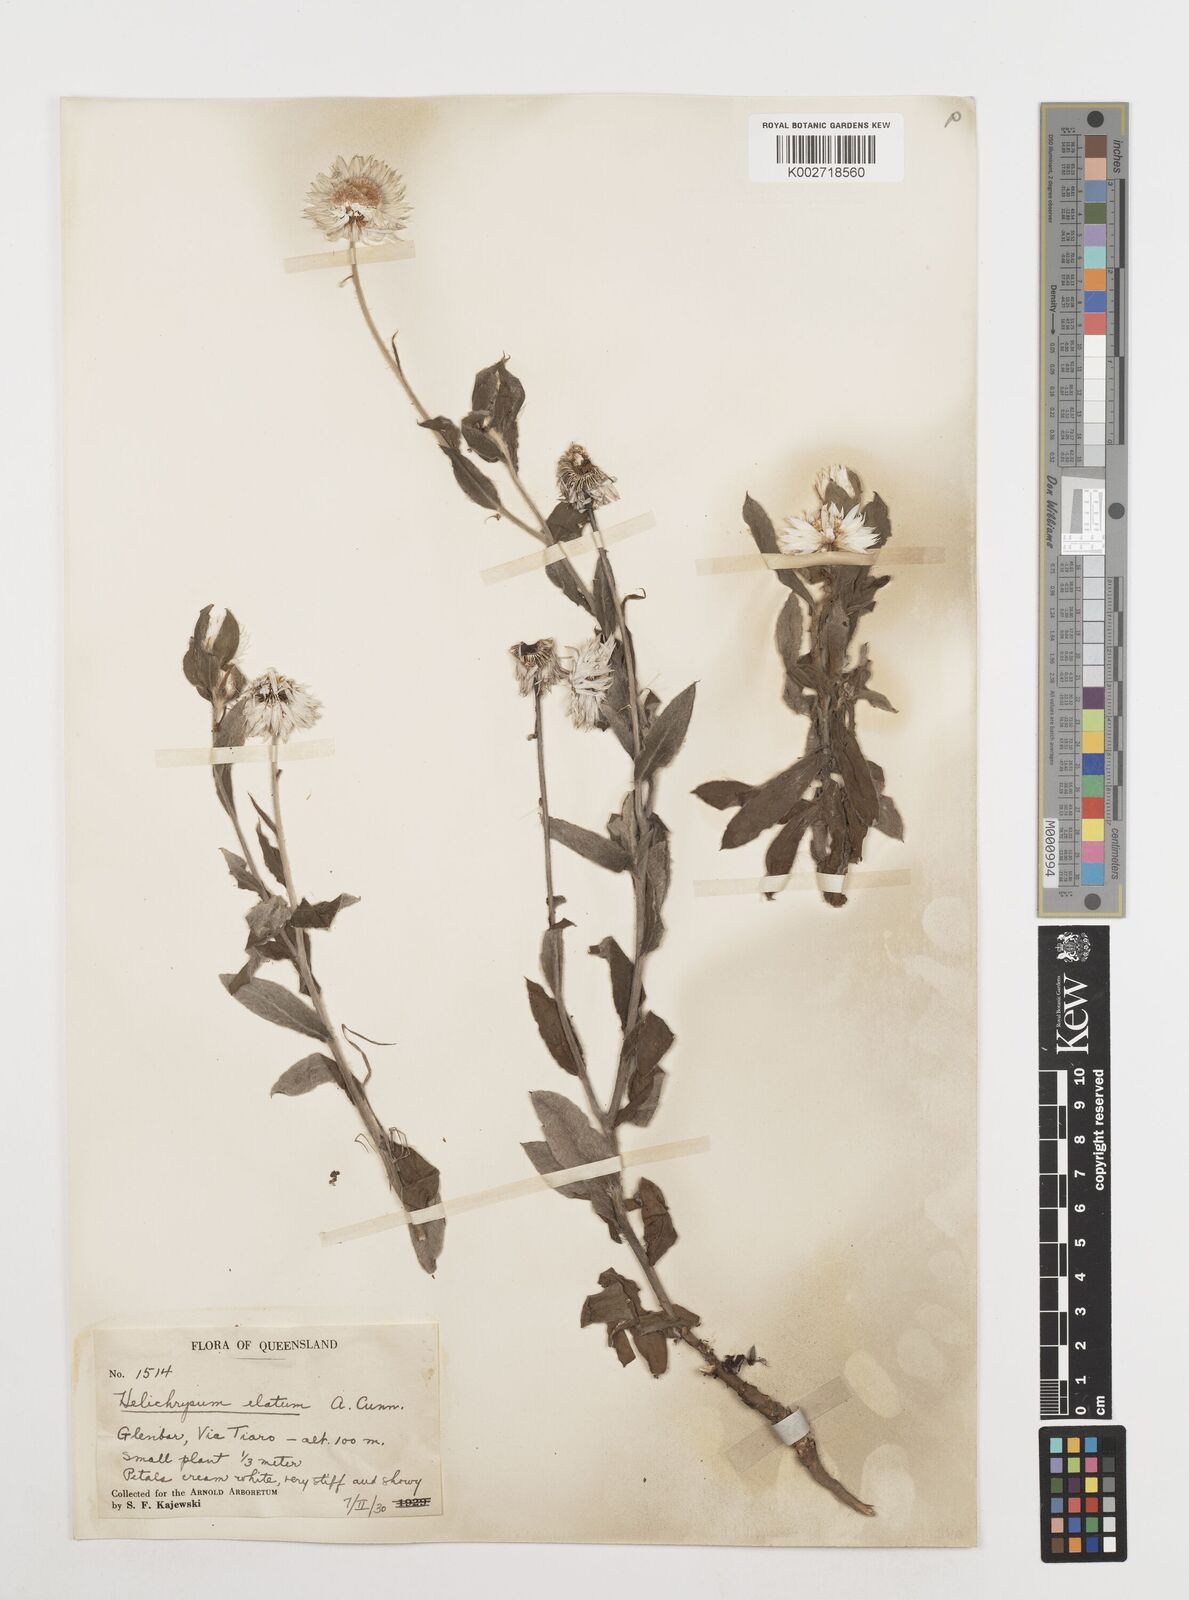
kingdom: Plantae
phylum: Tracheophyta
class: Magnoliopsida
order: Asterales
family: Asteraceae
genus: Leucozoma
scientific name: Leucozoma elatum
